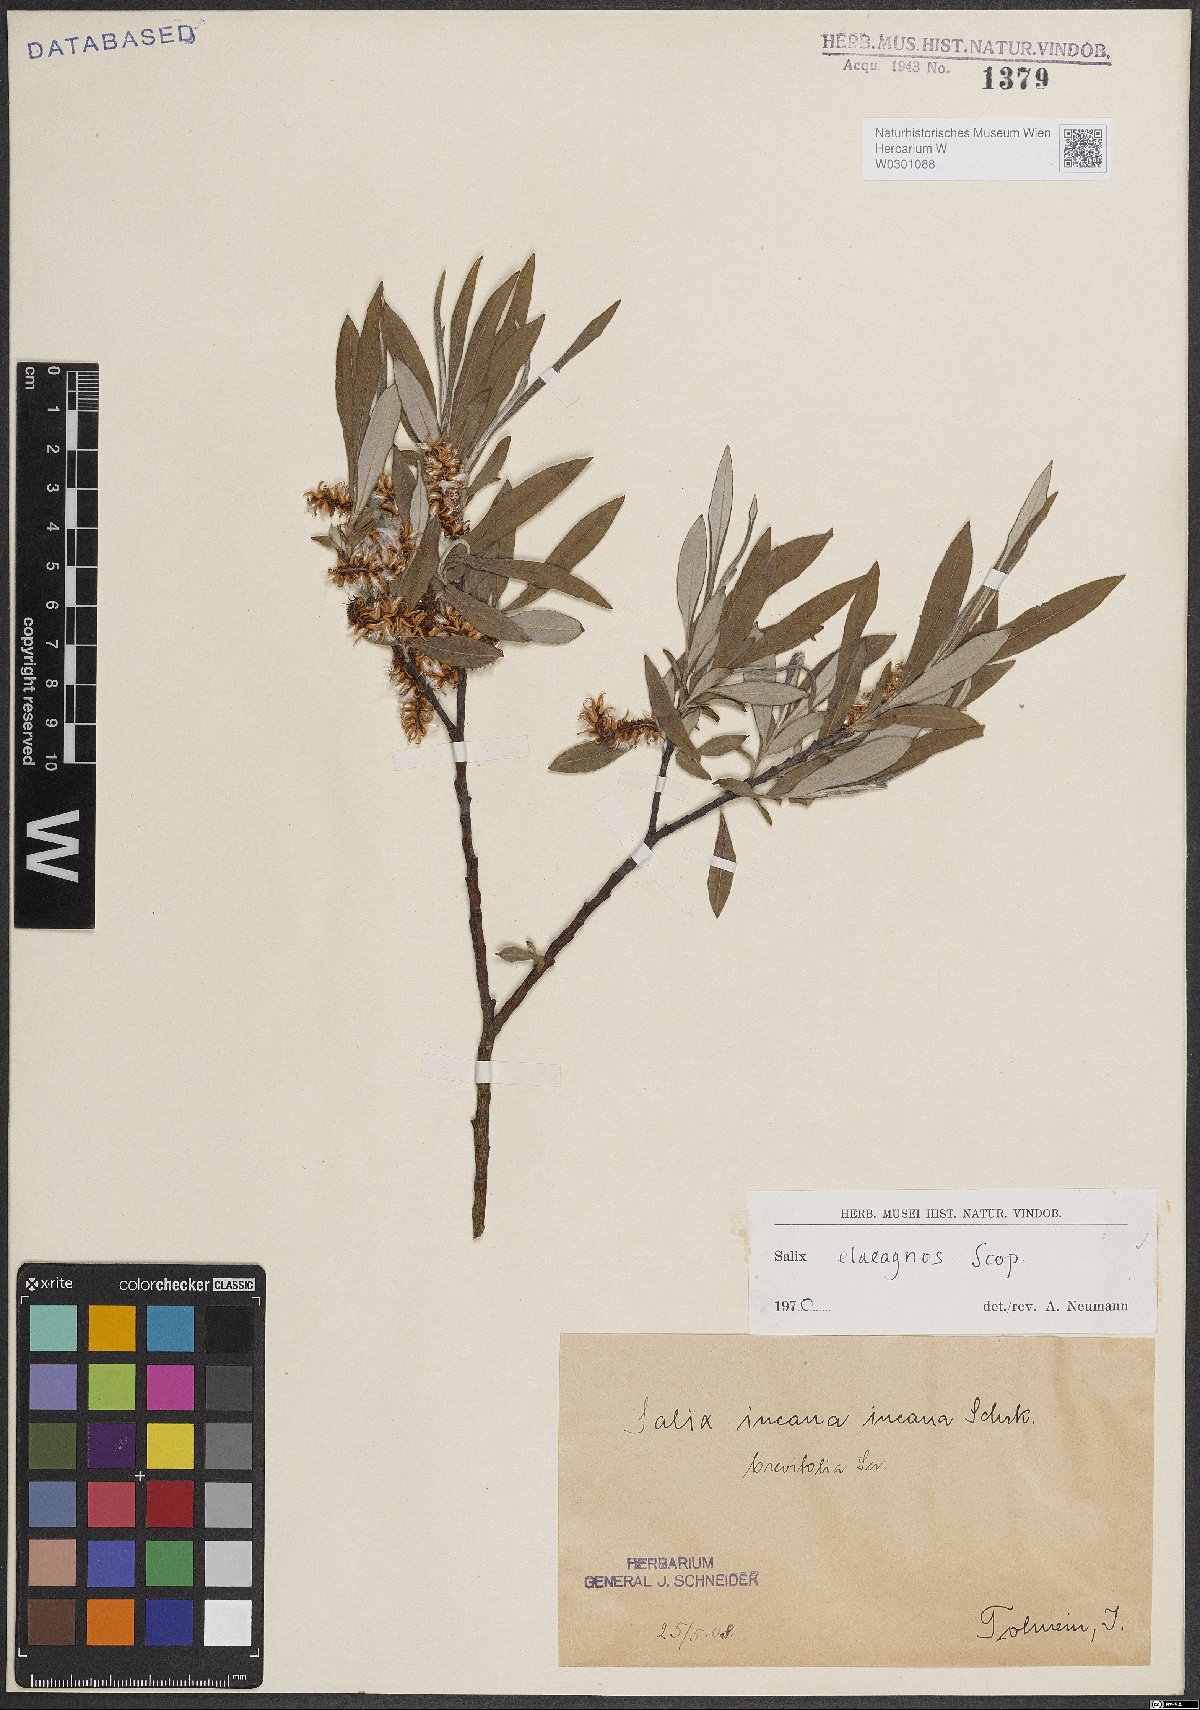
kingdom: Plantae
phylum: Tracheophyta
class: Magnoliopsida
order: Malpighiales
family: Salicaceae
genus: Salix
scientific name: Salix eleagnos
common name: Elaeagnus willow
